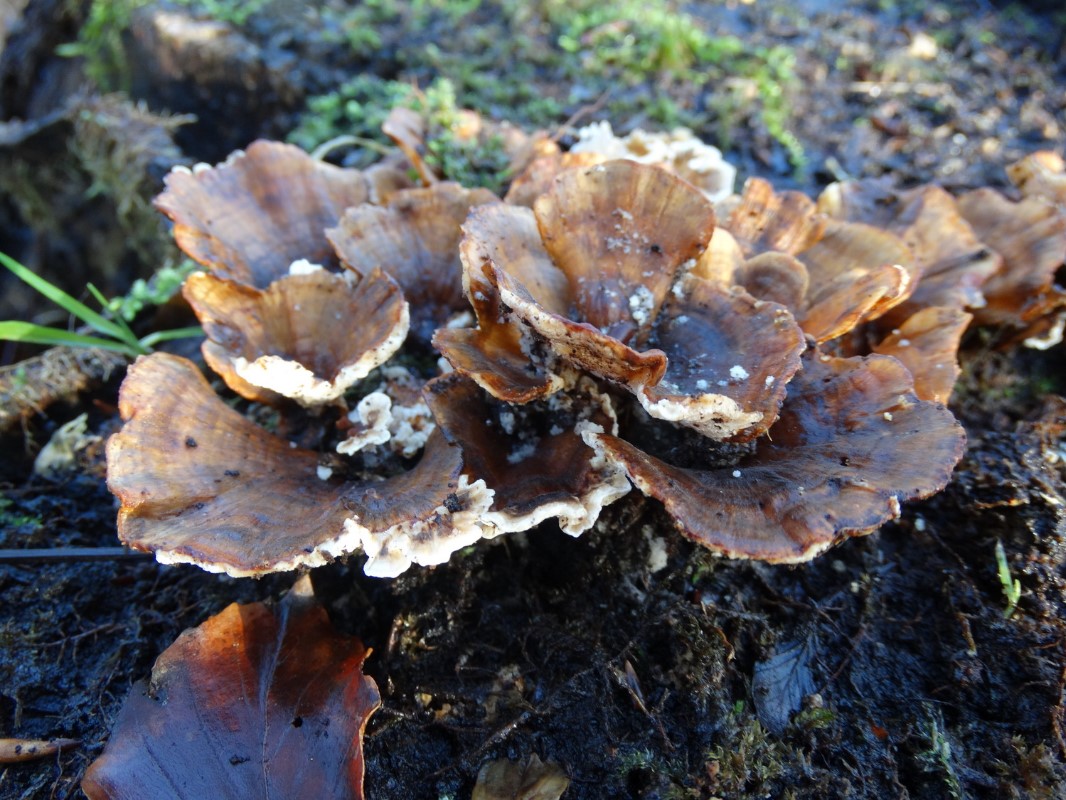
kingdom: Fungi
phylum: Basidiomycota
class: Agaricomycetes
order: Russulales
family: Stereaceae
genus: Stereum
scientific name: Stereum subtomentosum
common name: smuk lædersvamp
